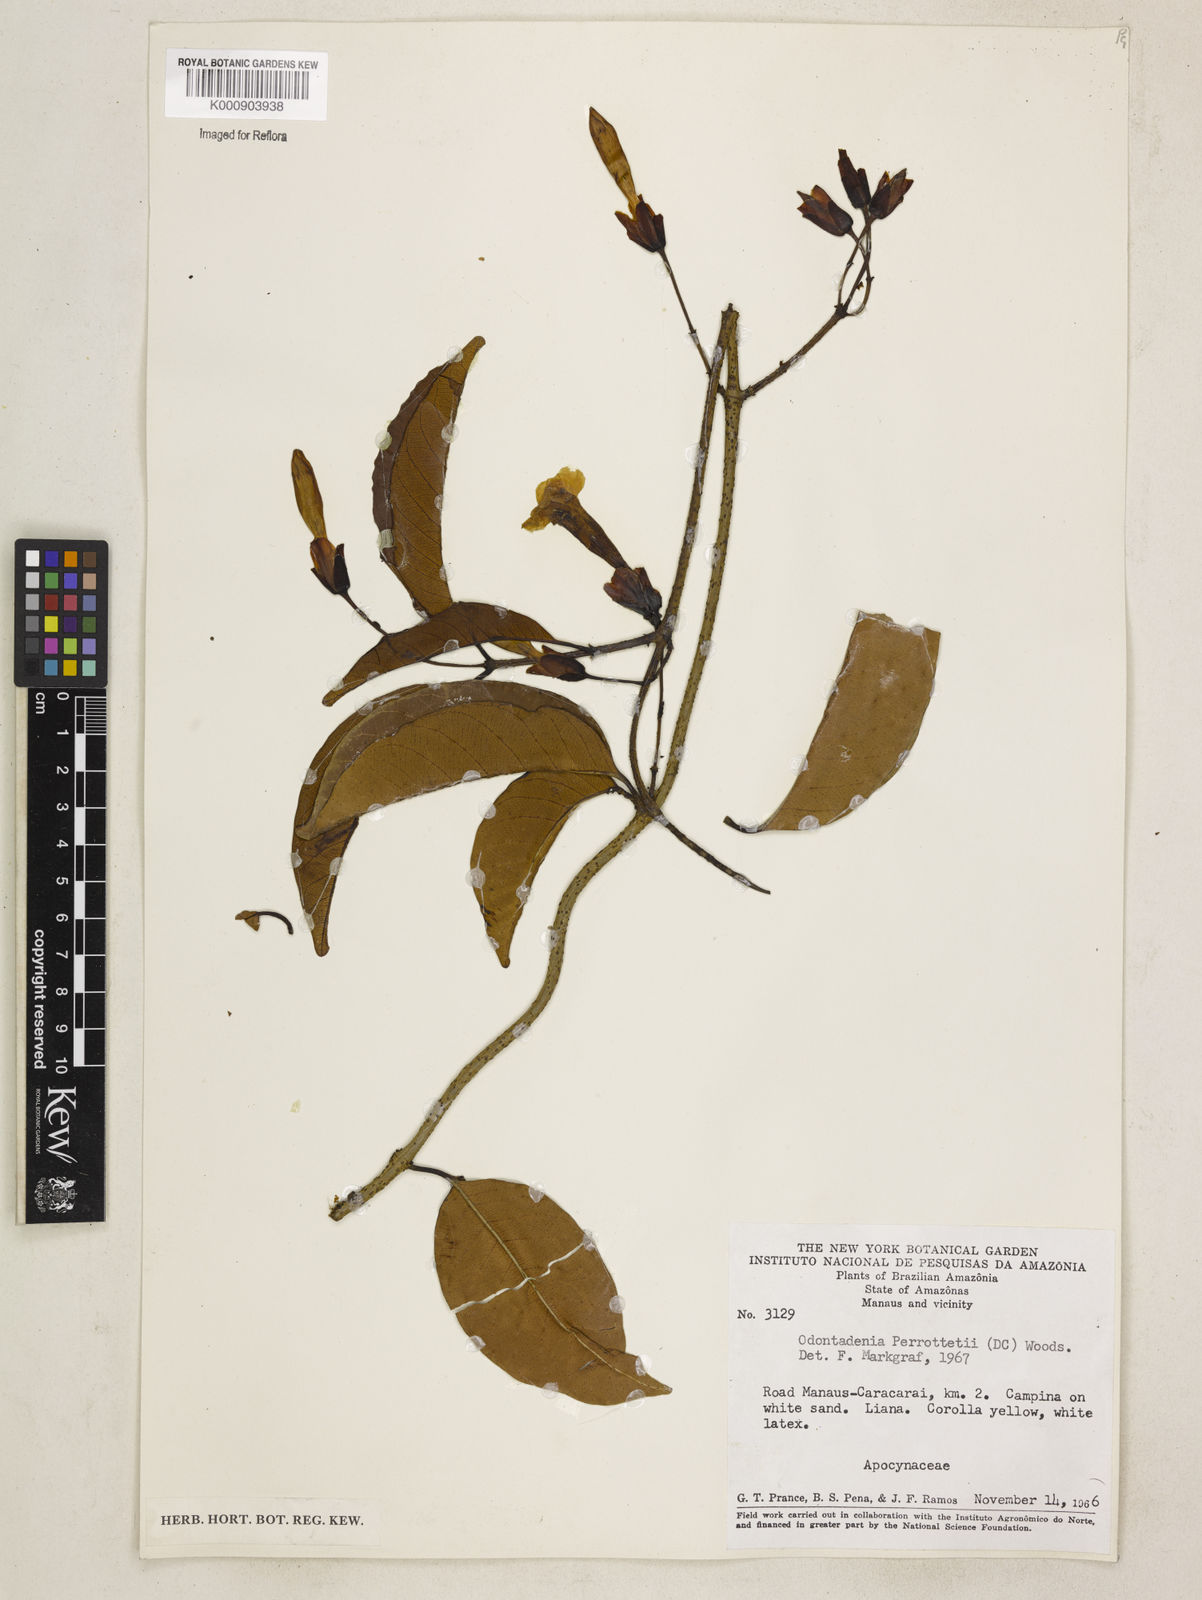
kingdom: Plantae
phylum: Tracheophyta
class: Magnoliopsida
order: Gentianales
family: Apocynaceae
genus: Odontadenia
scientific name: Odontadenia perrottetii
